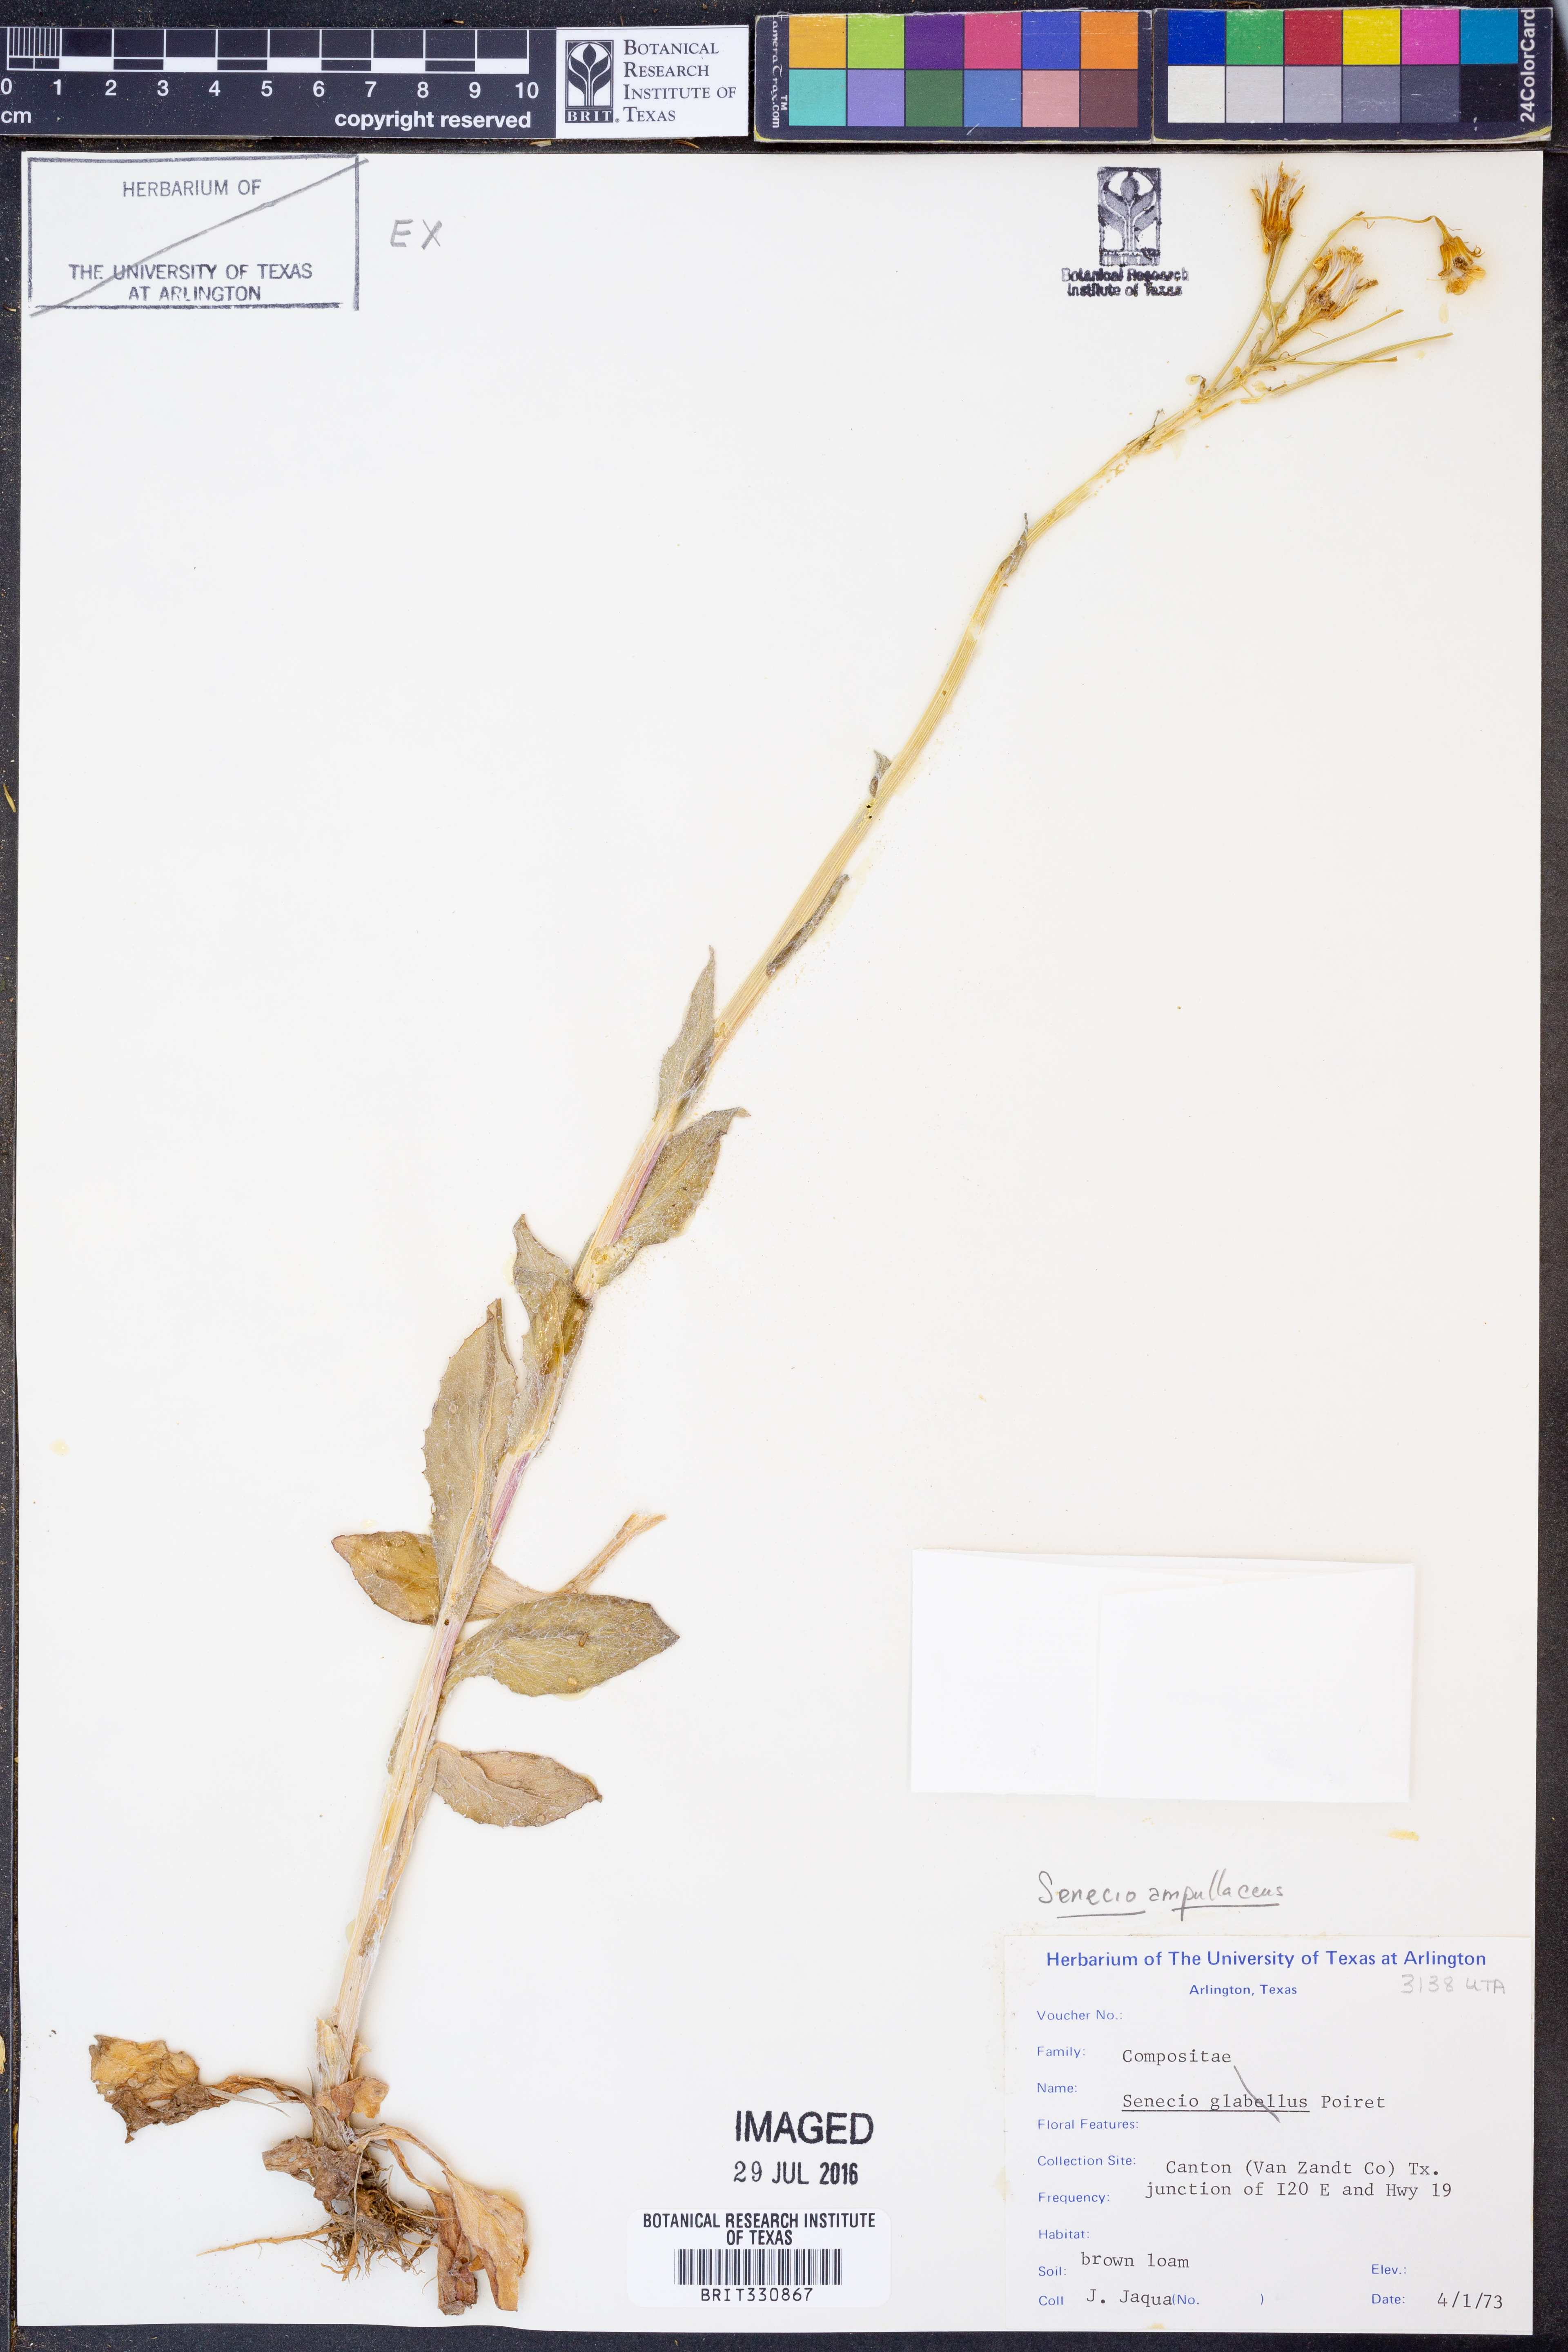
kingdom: Plantae
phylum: Tracheophyta
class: Magnoliopsida
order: Asterales
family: Asteraceae
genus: Senecio
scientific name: Senecio ampullaceus
